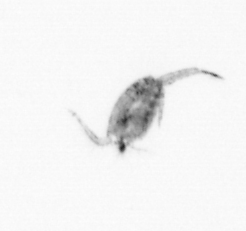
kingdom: Animalia
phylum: Arthropoda
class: Copepoda
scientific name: Copepoda
